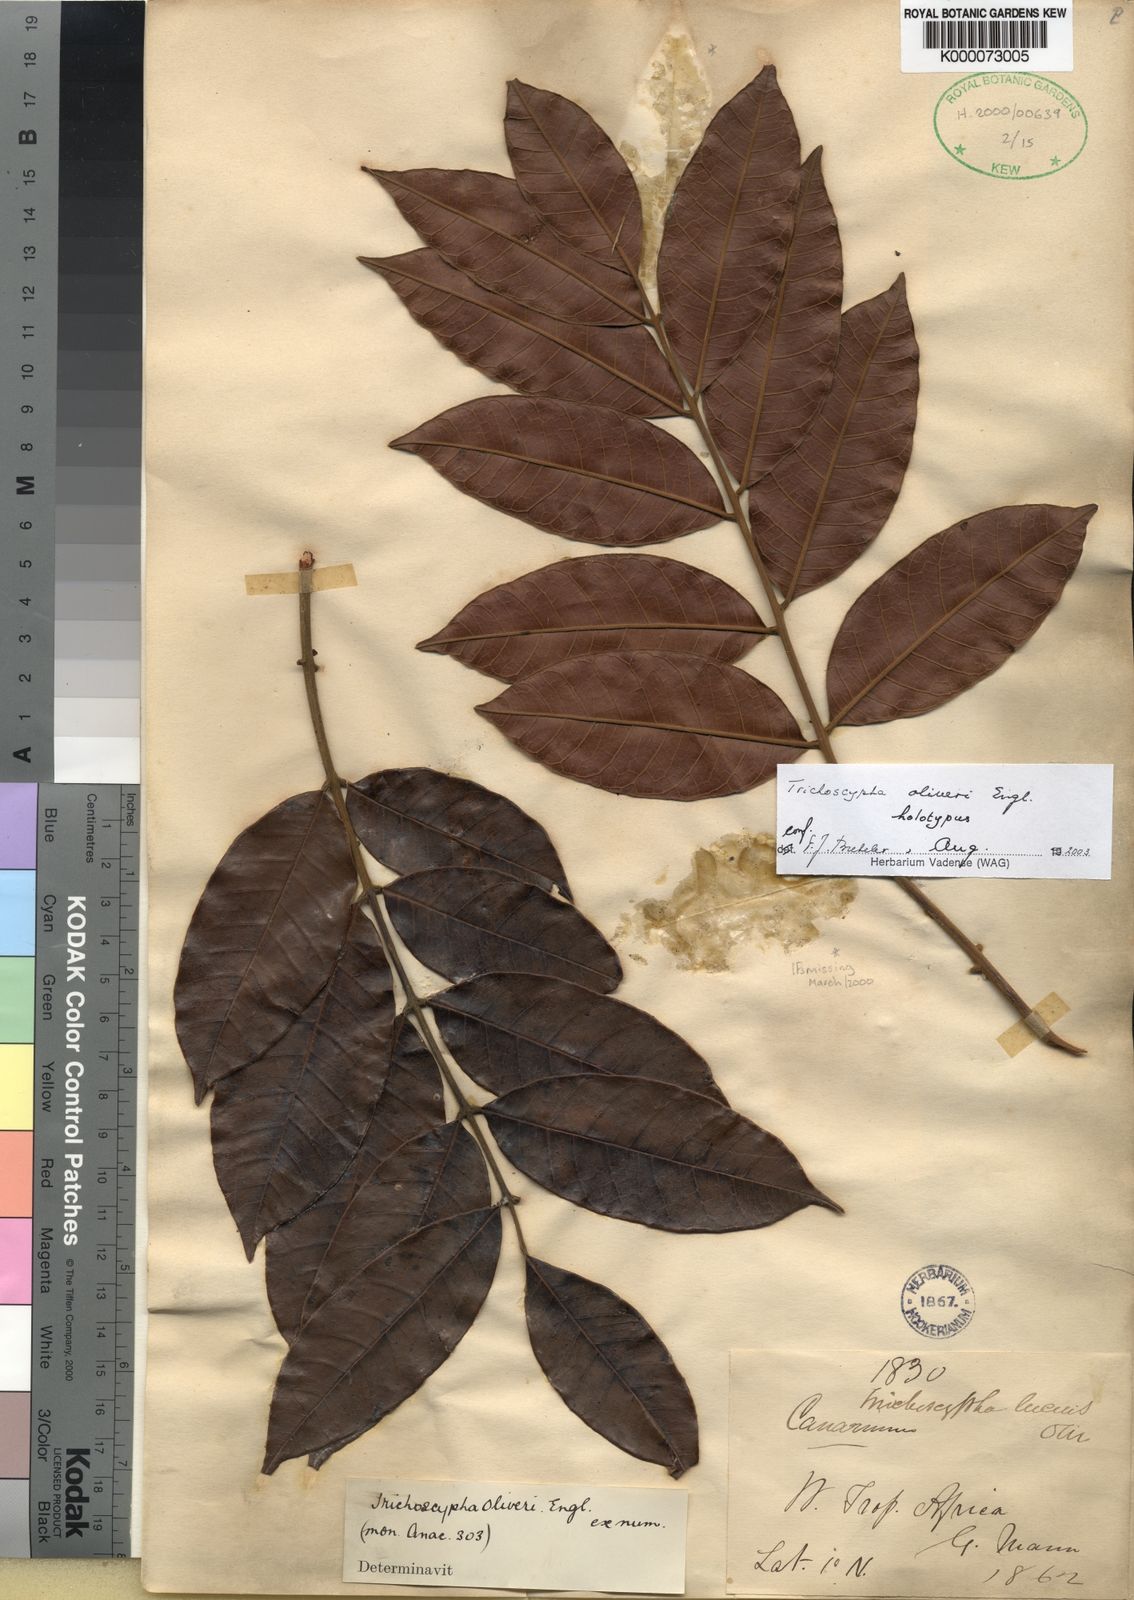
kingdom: Plantae
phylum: Tracheophyta
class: Magnoliopsida
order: Sapindales
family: Anacardiaceae
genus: Trichoscypha
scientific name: Trichoscypha oliveri
